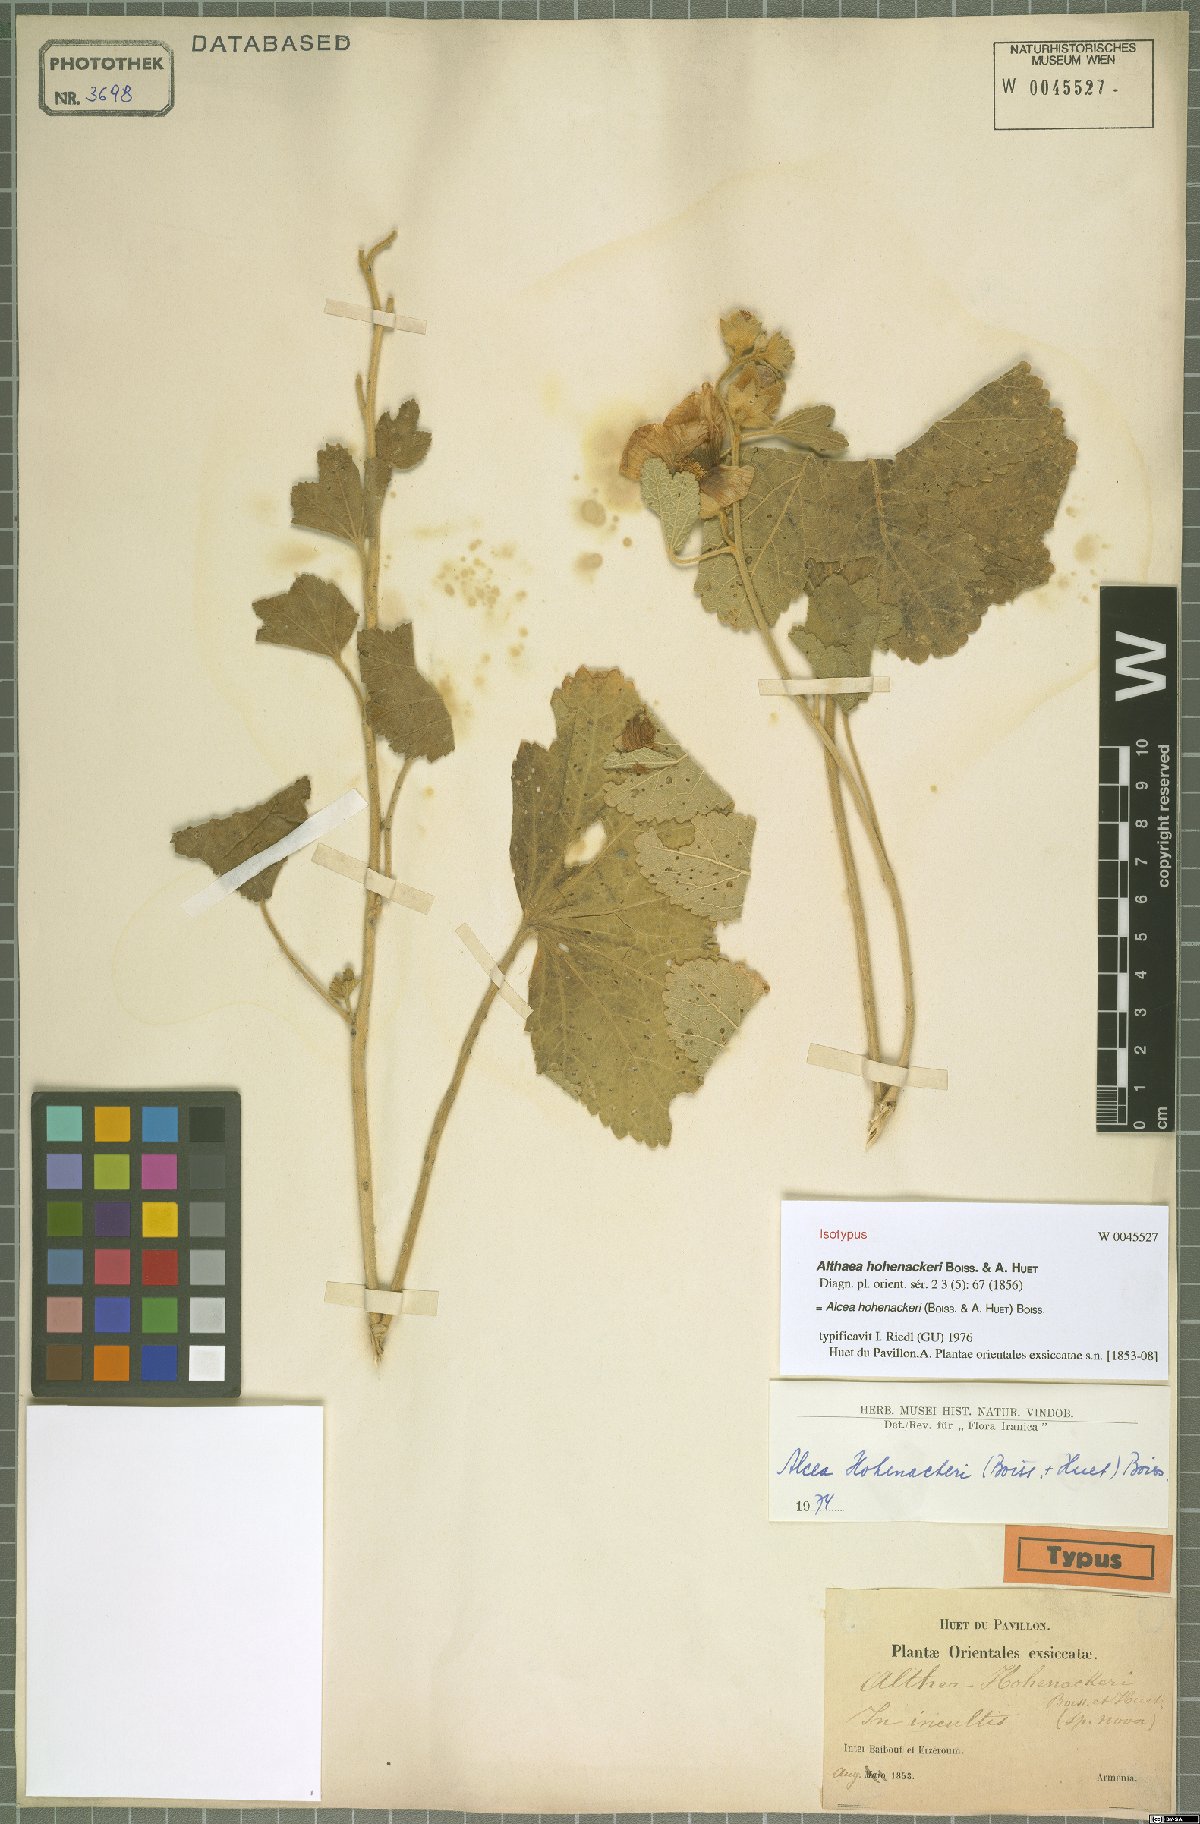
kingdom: Plantae
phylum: Tracheophyta
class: Magnoliopsida
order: Malvales
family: Malvaceae
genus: Alcea
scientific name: Alcea kurdica
